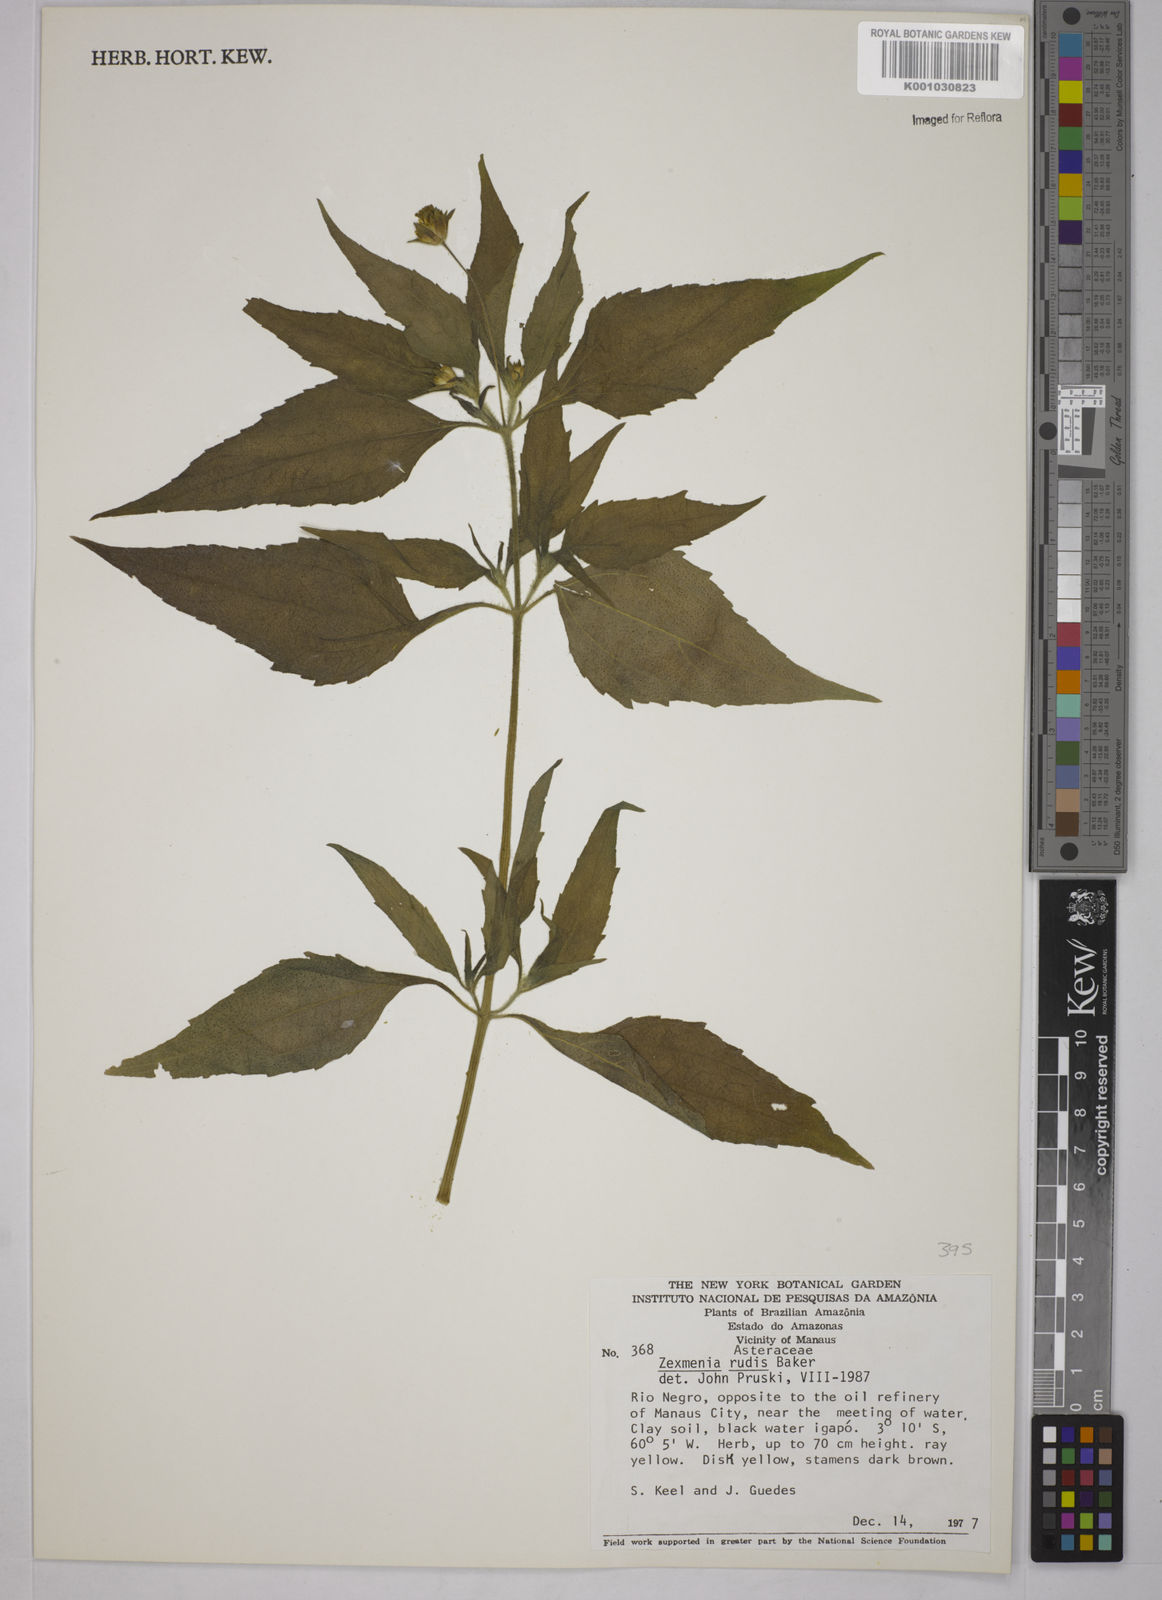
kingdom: Plantae
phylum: Tracheophyta
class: Magnoliopsida
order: Asterales
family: Asteraceae
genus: Wedelia
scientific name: Wedelia rudis
